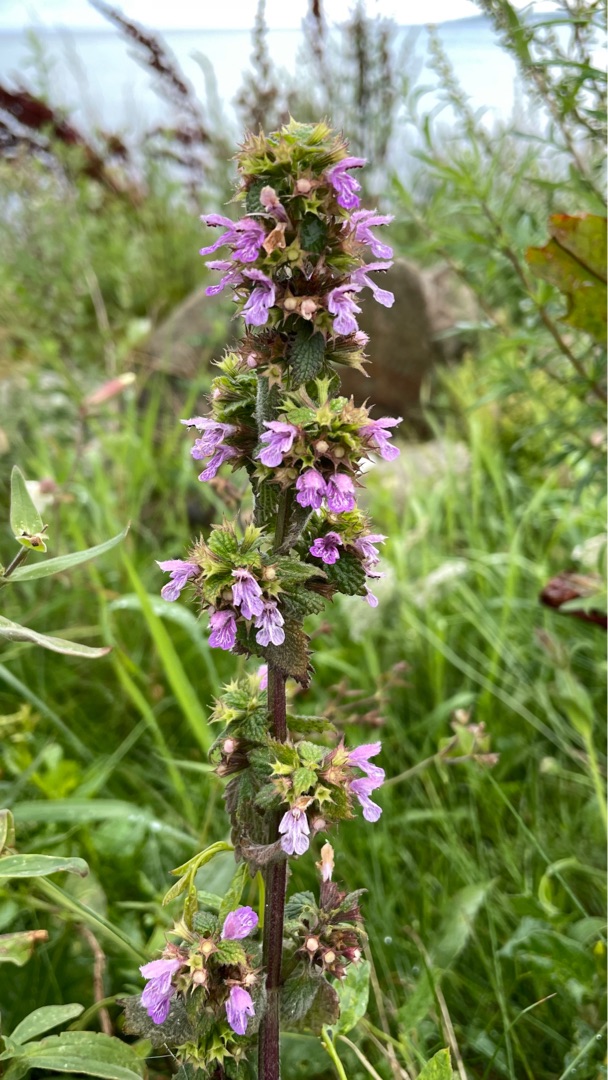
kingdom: Plantae
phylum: Tracheophyta
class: Magnoliopsida
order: Lamiales
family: Lamiaceae
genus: Ballota
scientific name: Ballota nigra
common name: Tandbæger
